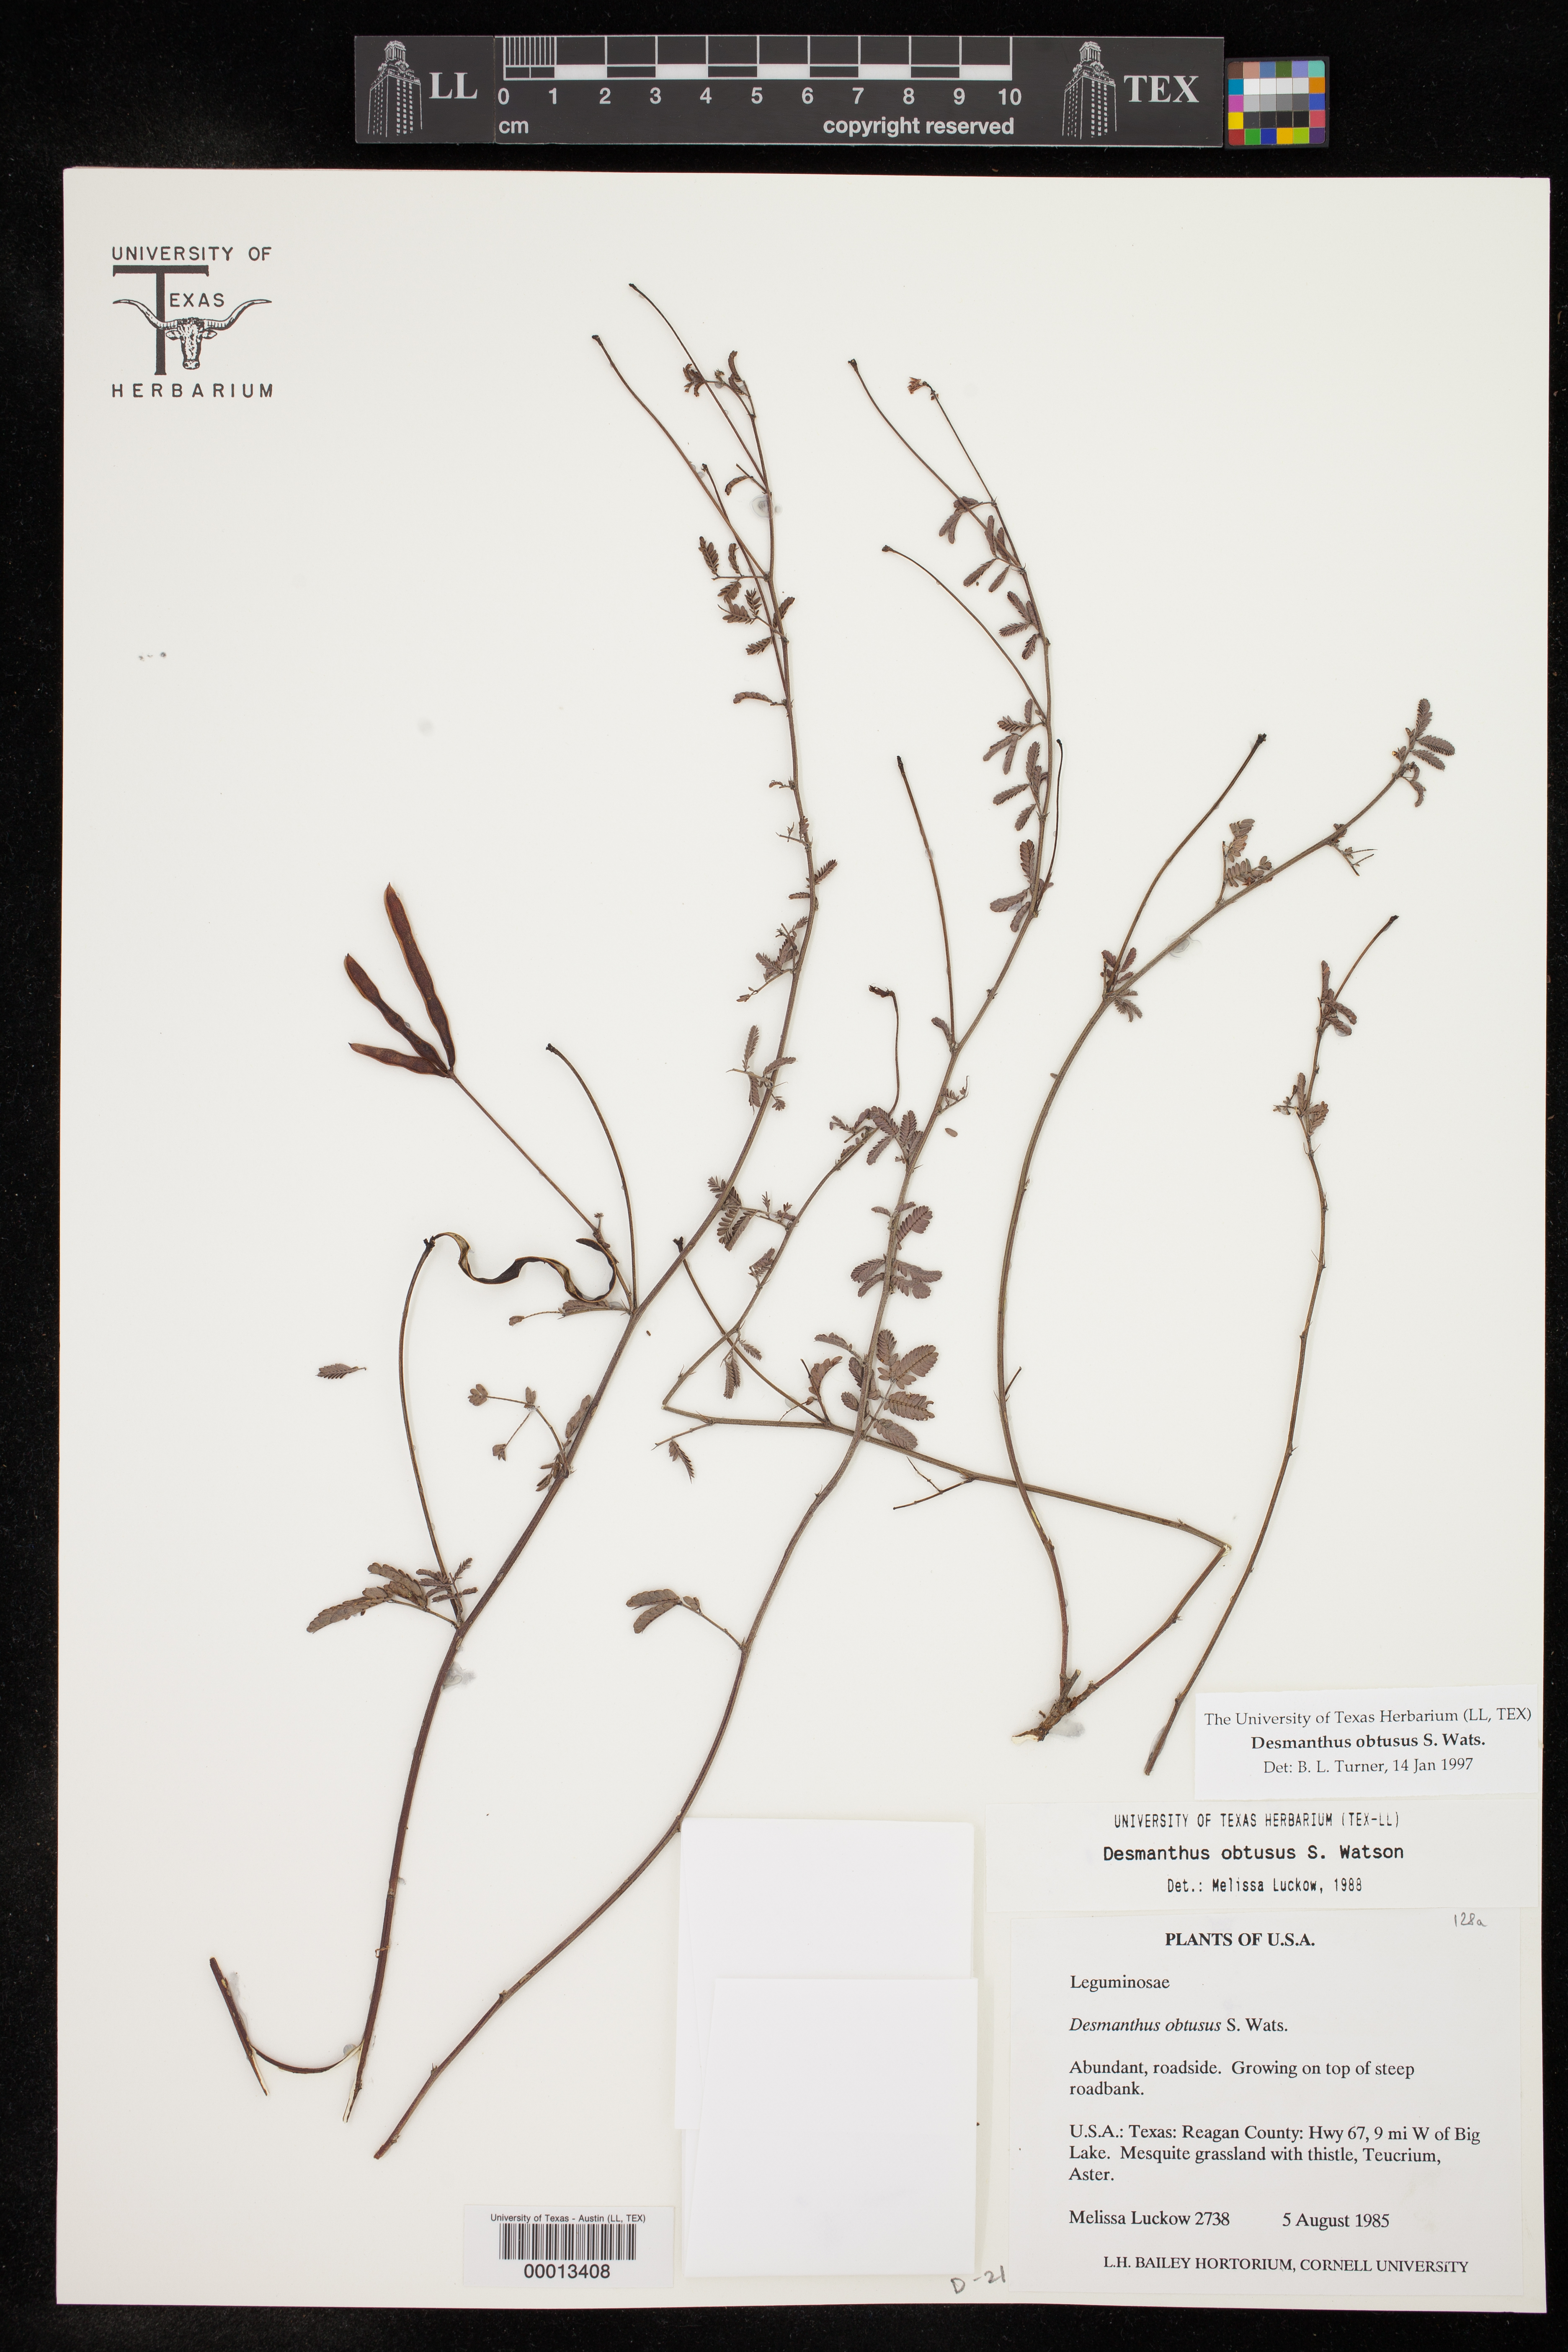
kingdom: Plantae
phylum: Tracheophyta
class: Magnoliopsida
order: Fabales
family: Fabaceae
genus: Desmanthus
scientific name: Desmanthus obtusus
